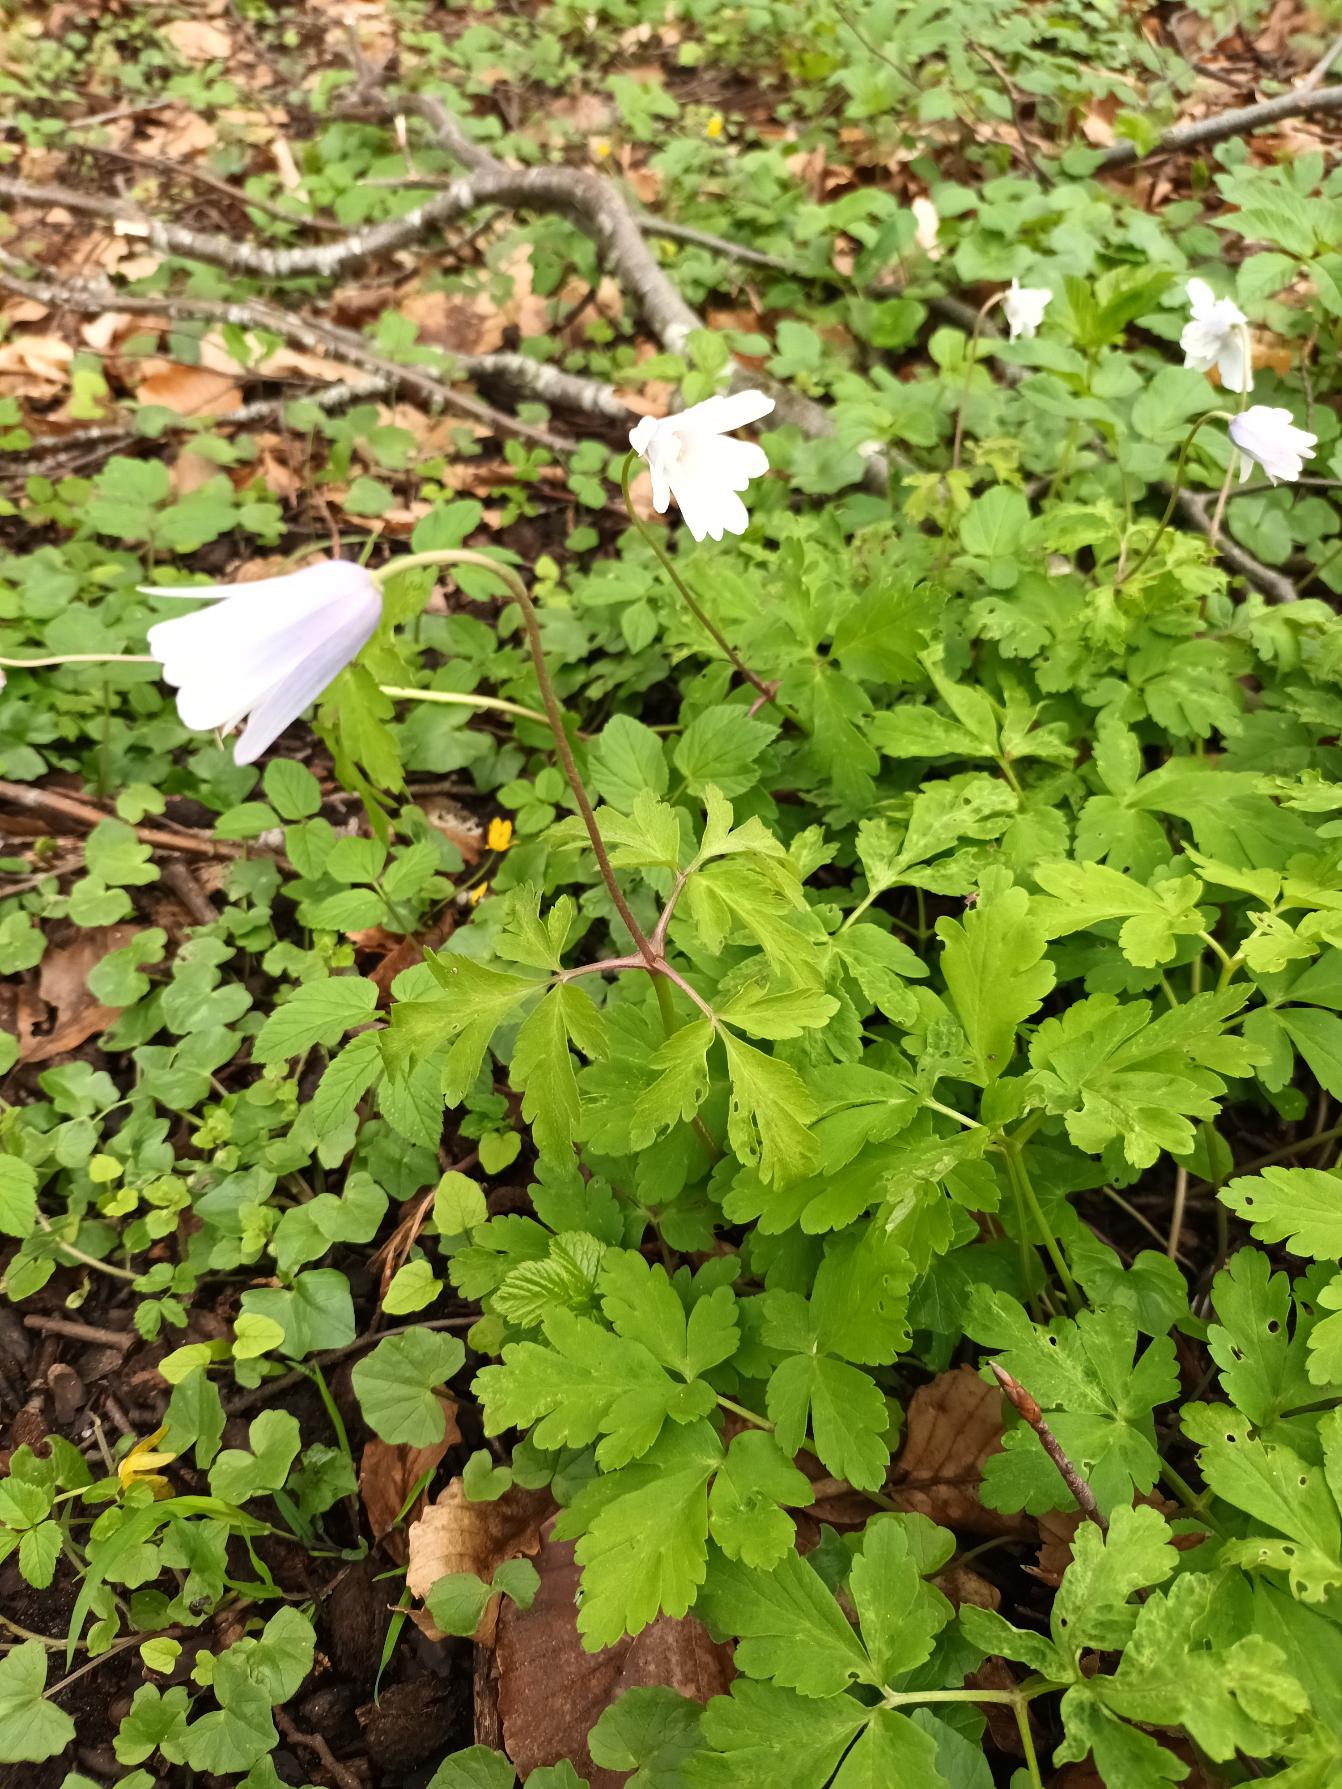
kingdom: Plantae
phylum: Tracheophyta
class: Magnoliopsida
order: Ranunculales
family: Ranunculaceae
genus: Anemone
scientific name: Anemone apennina
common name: Blegblå anemone
